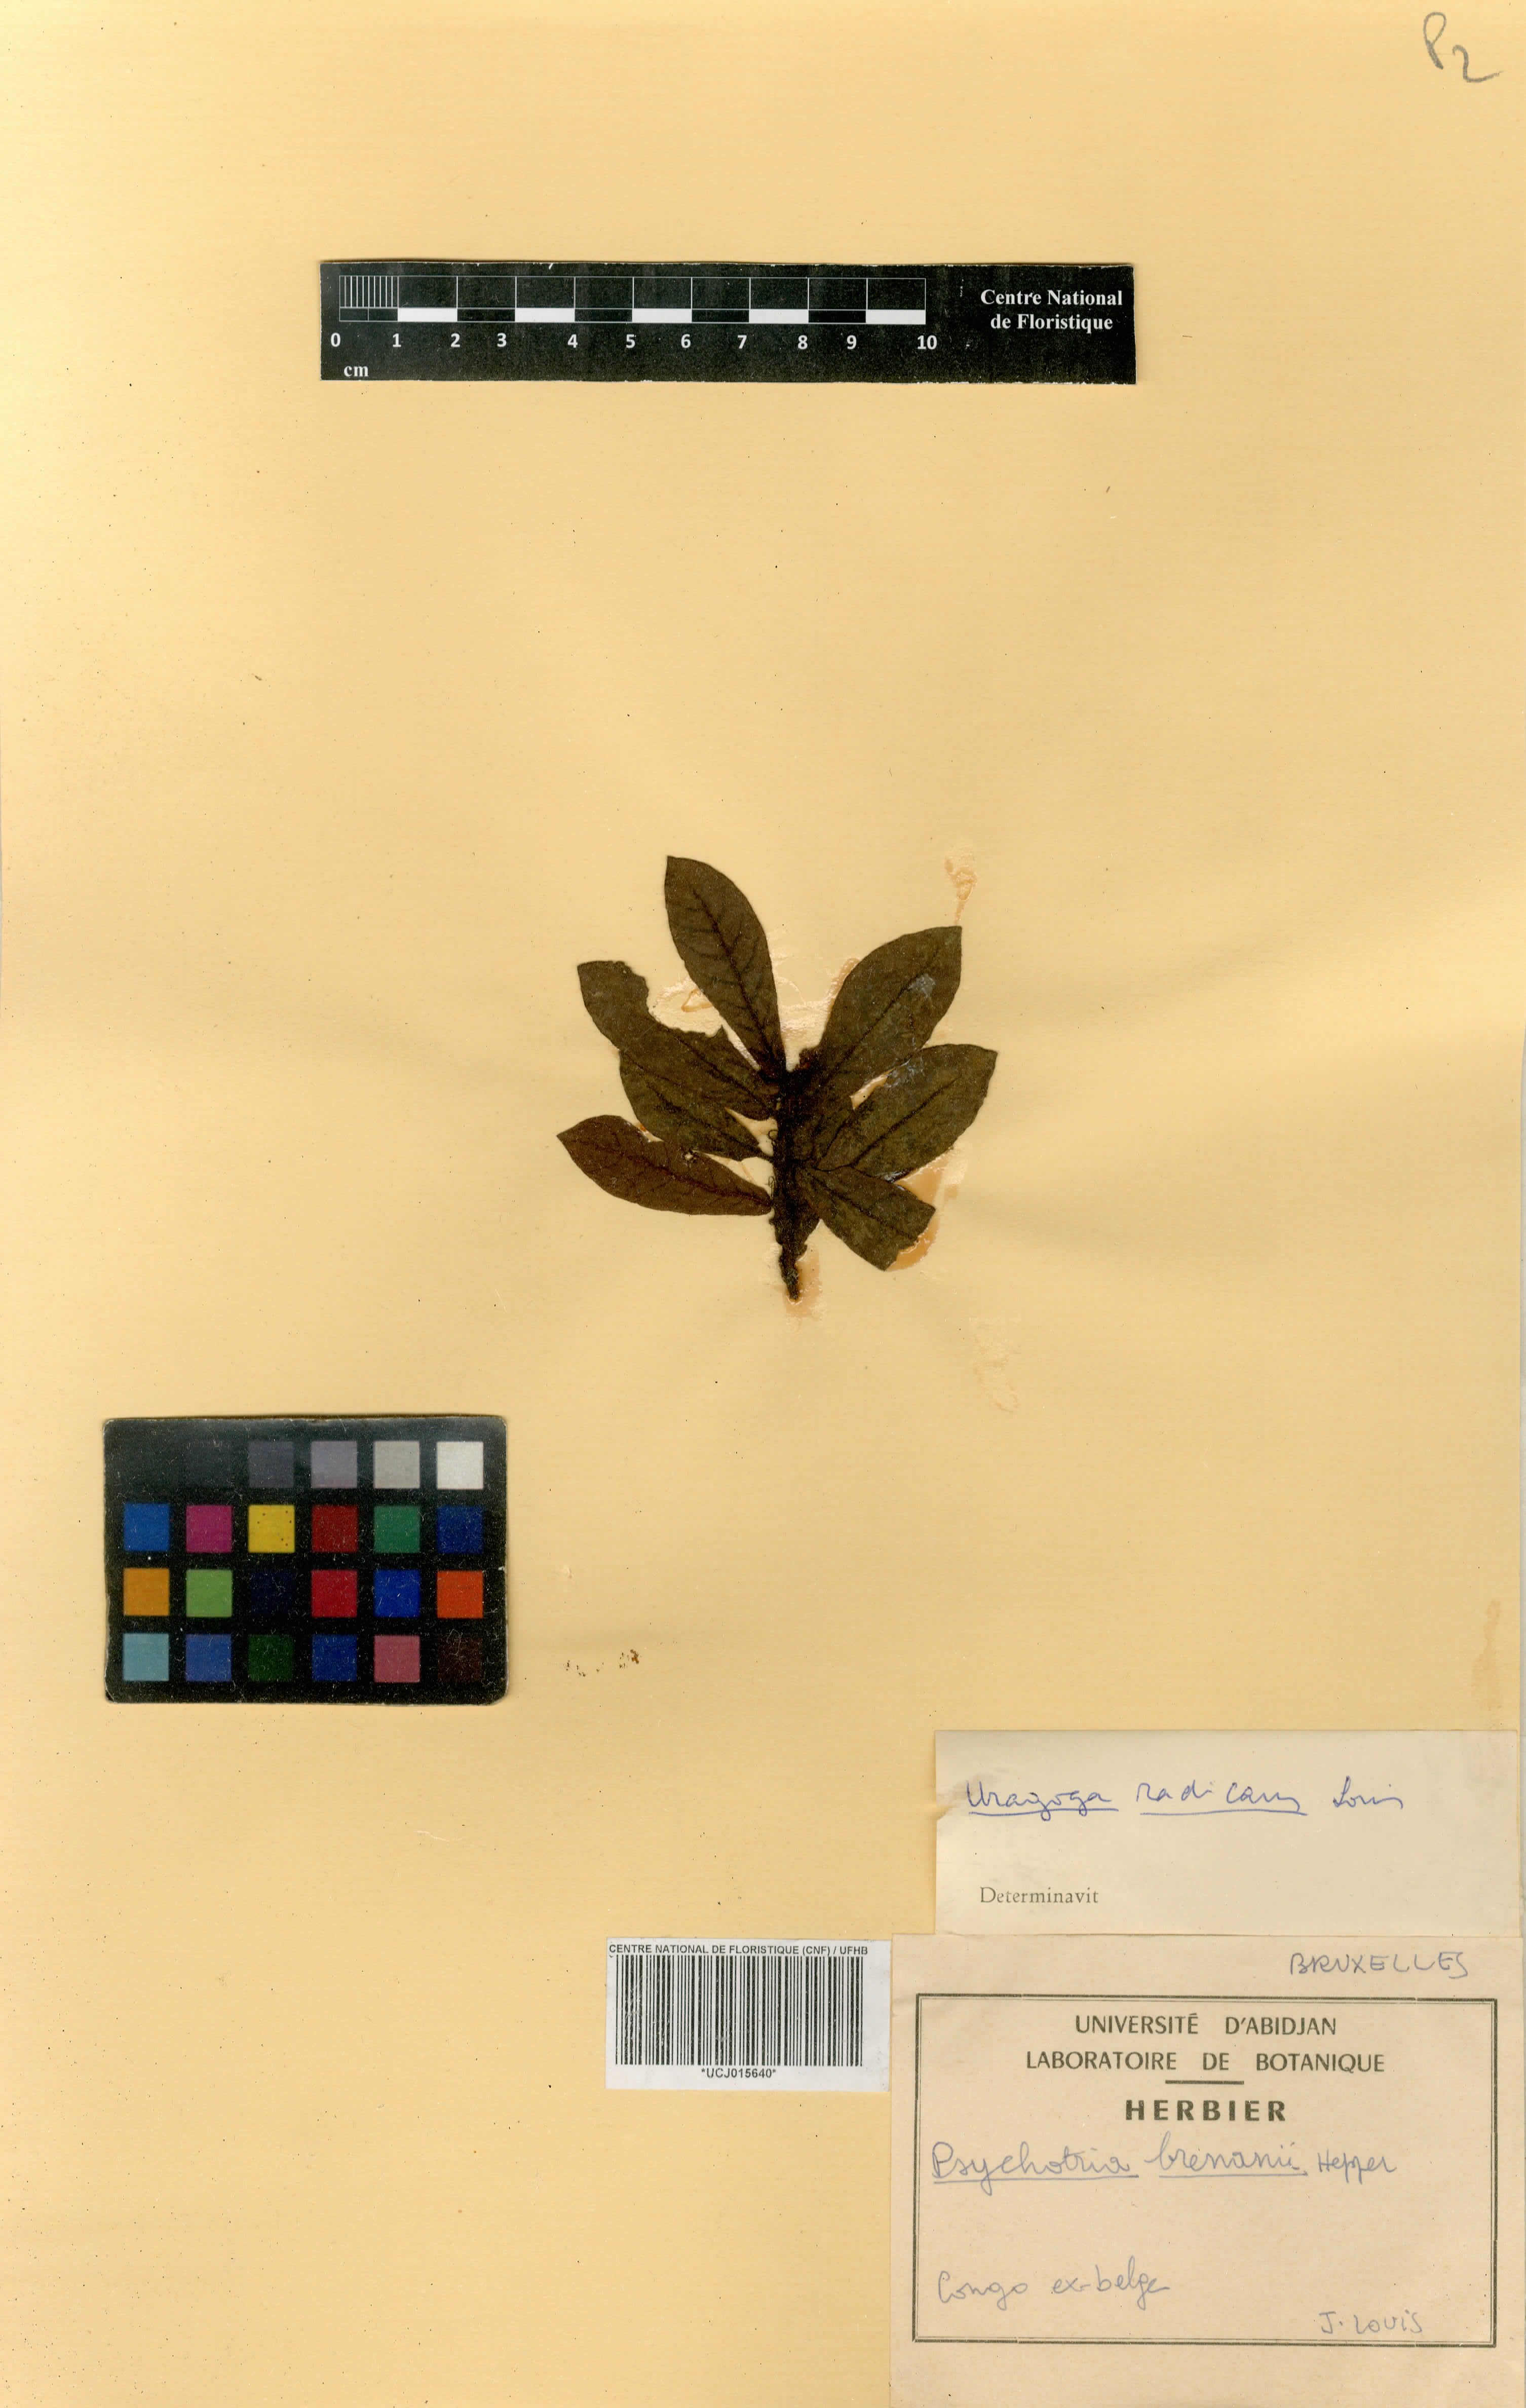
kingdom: Plantae
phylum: Tracheophyta
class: Magnoliopsida
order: Gentianales
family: Rubiaceae
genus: Psychotria
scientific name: Psychotria fimbriatifolia
